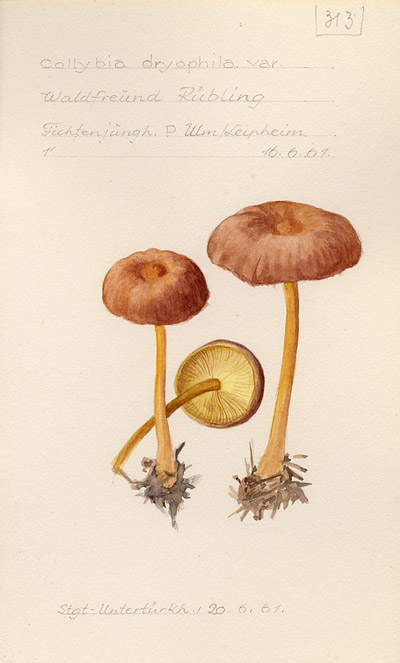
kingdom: Fungi
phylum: Basidiomycota
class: Agaricomycetes
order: Agaricales
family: Omphalotaceae
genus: Gymnopus
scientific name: Gymnopus dryophilus
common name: Penny top
